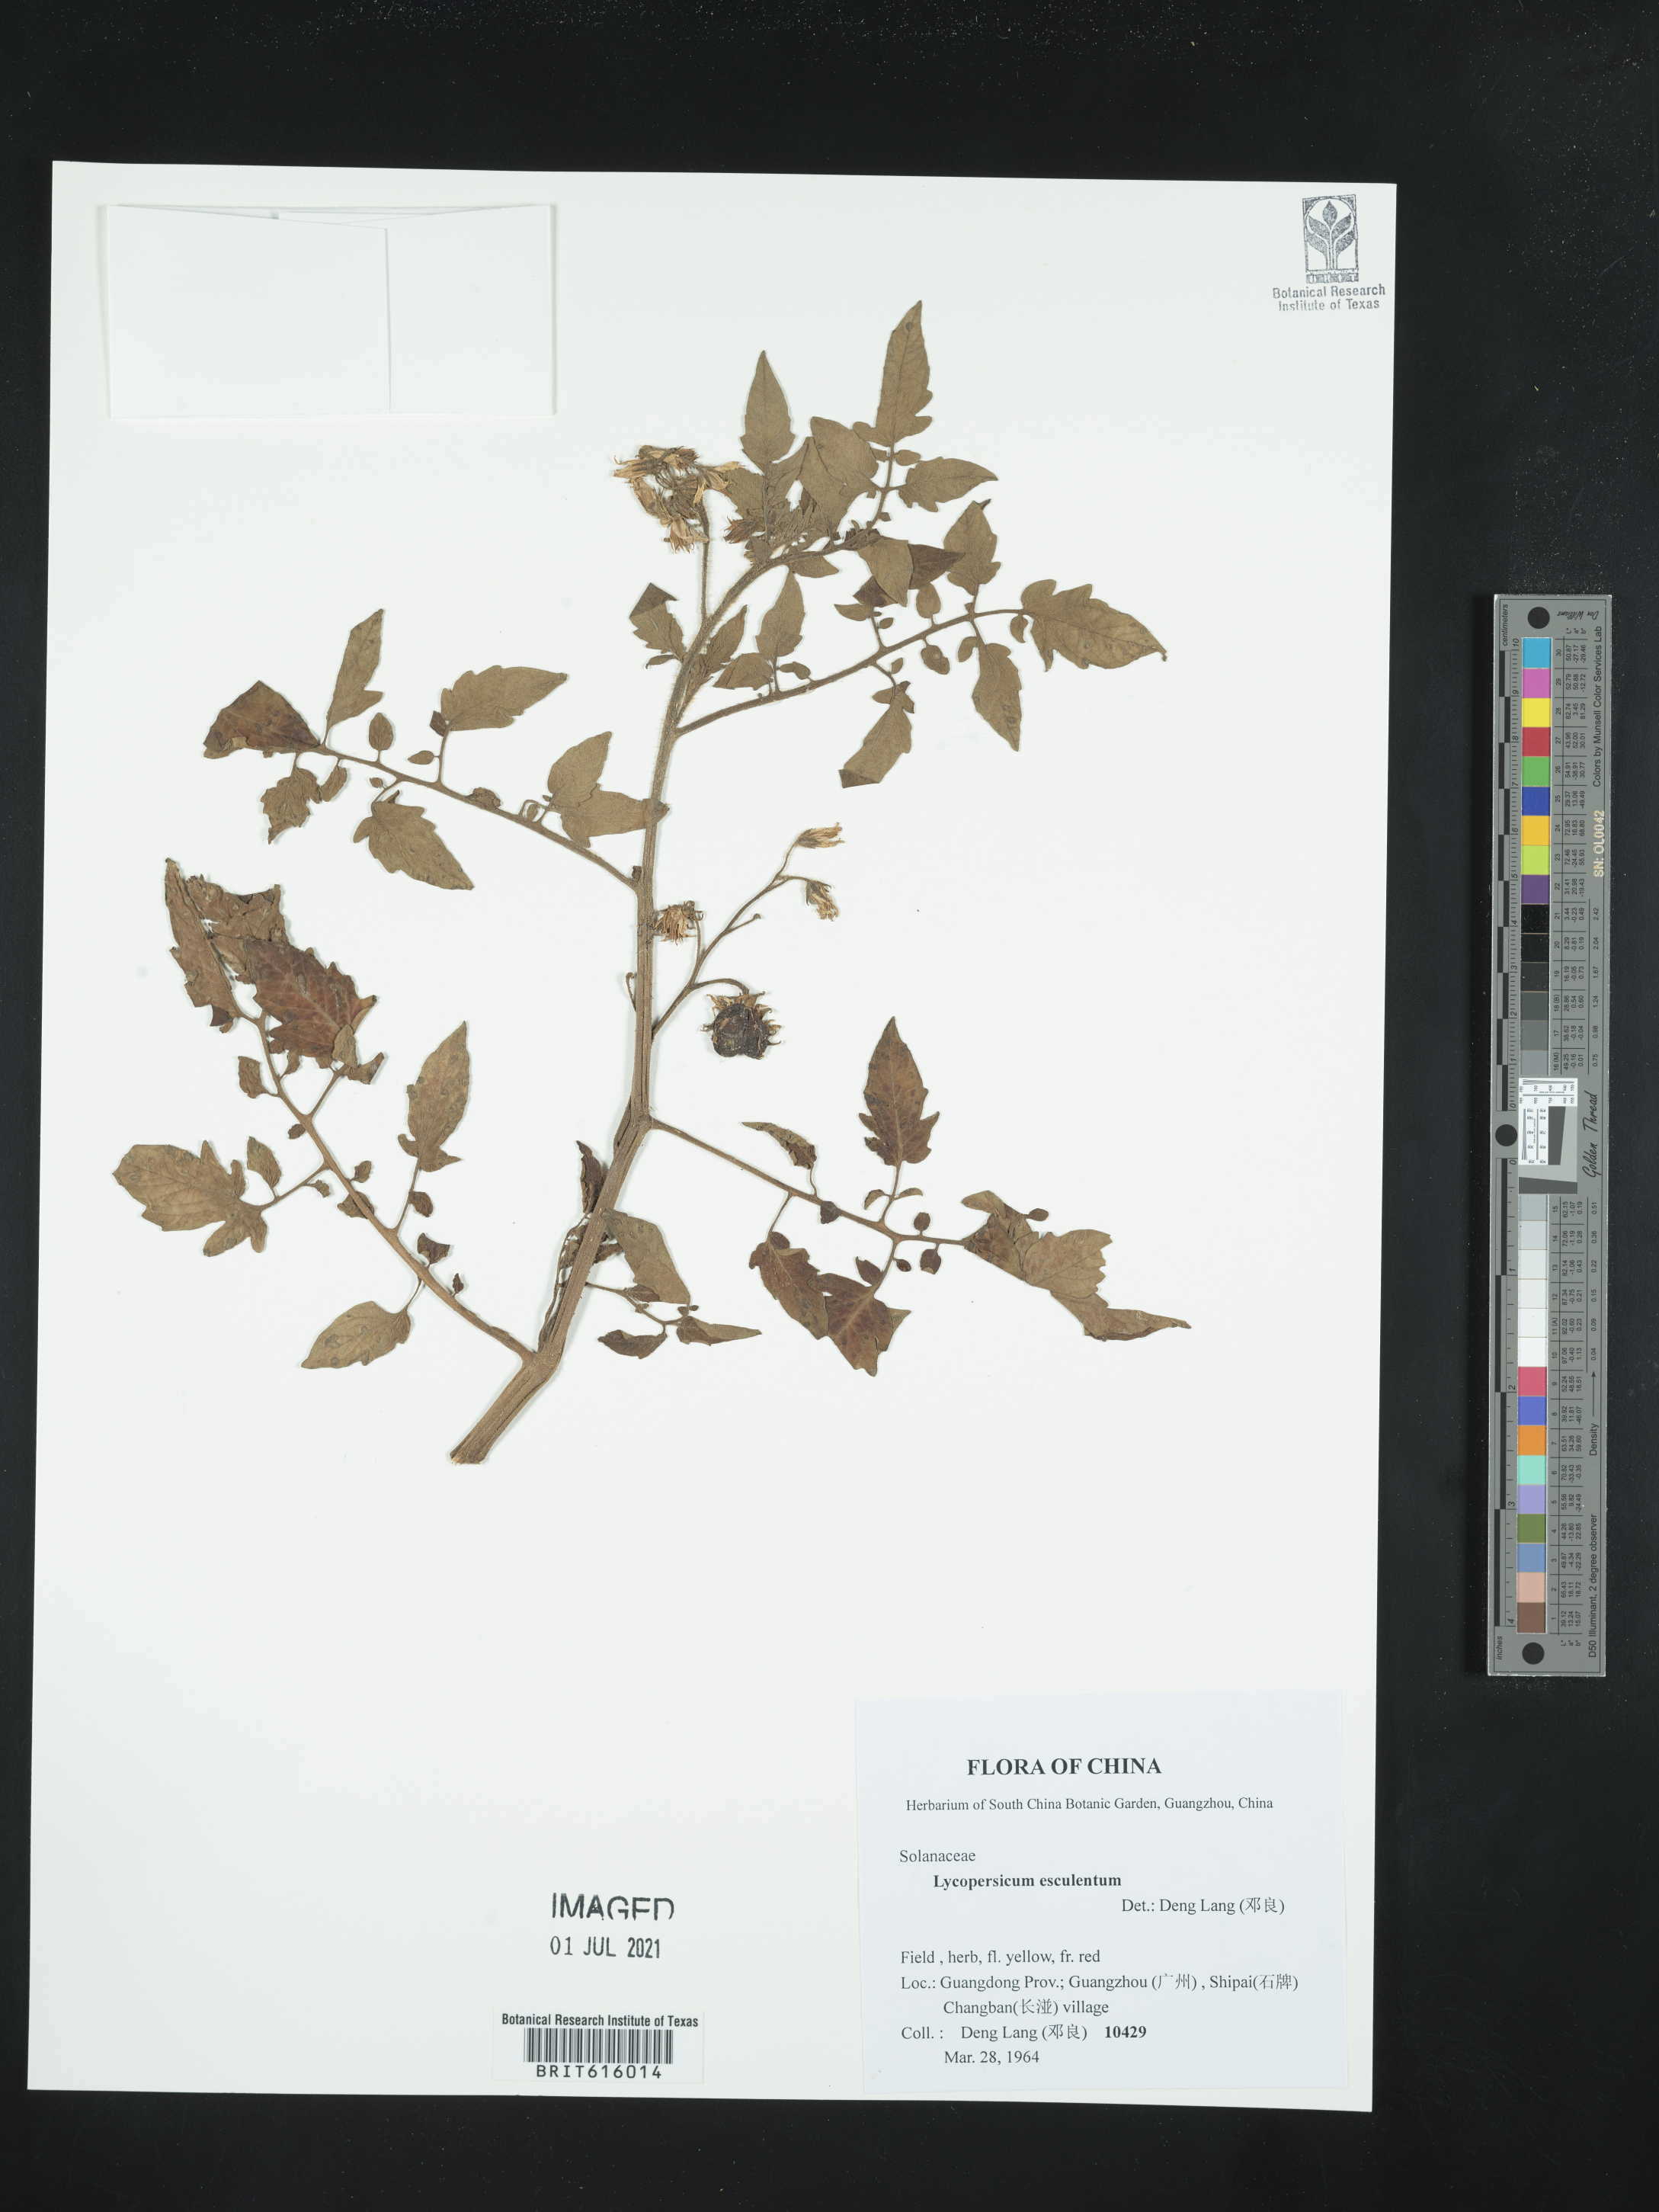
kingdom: Plantae
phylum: Tracheophyta
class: Magnoliopsida
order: Solanales
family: Solanaceae
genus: Solanum
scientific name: Solanum Lycopersicum esculentum
